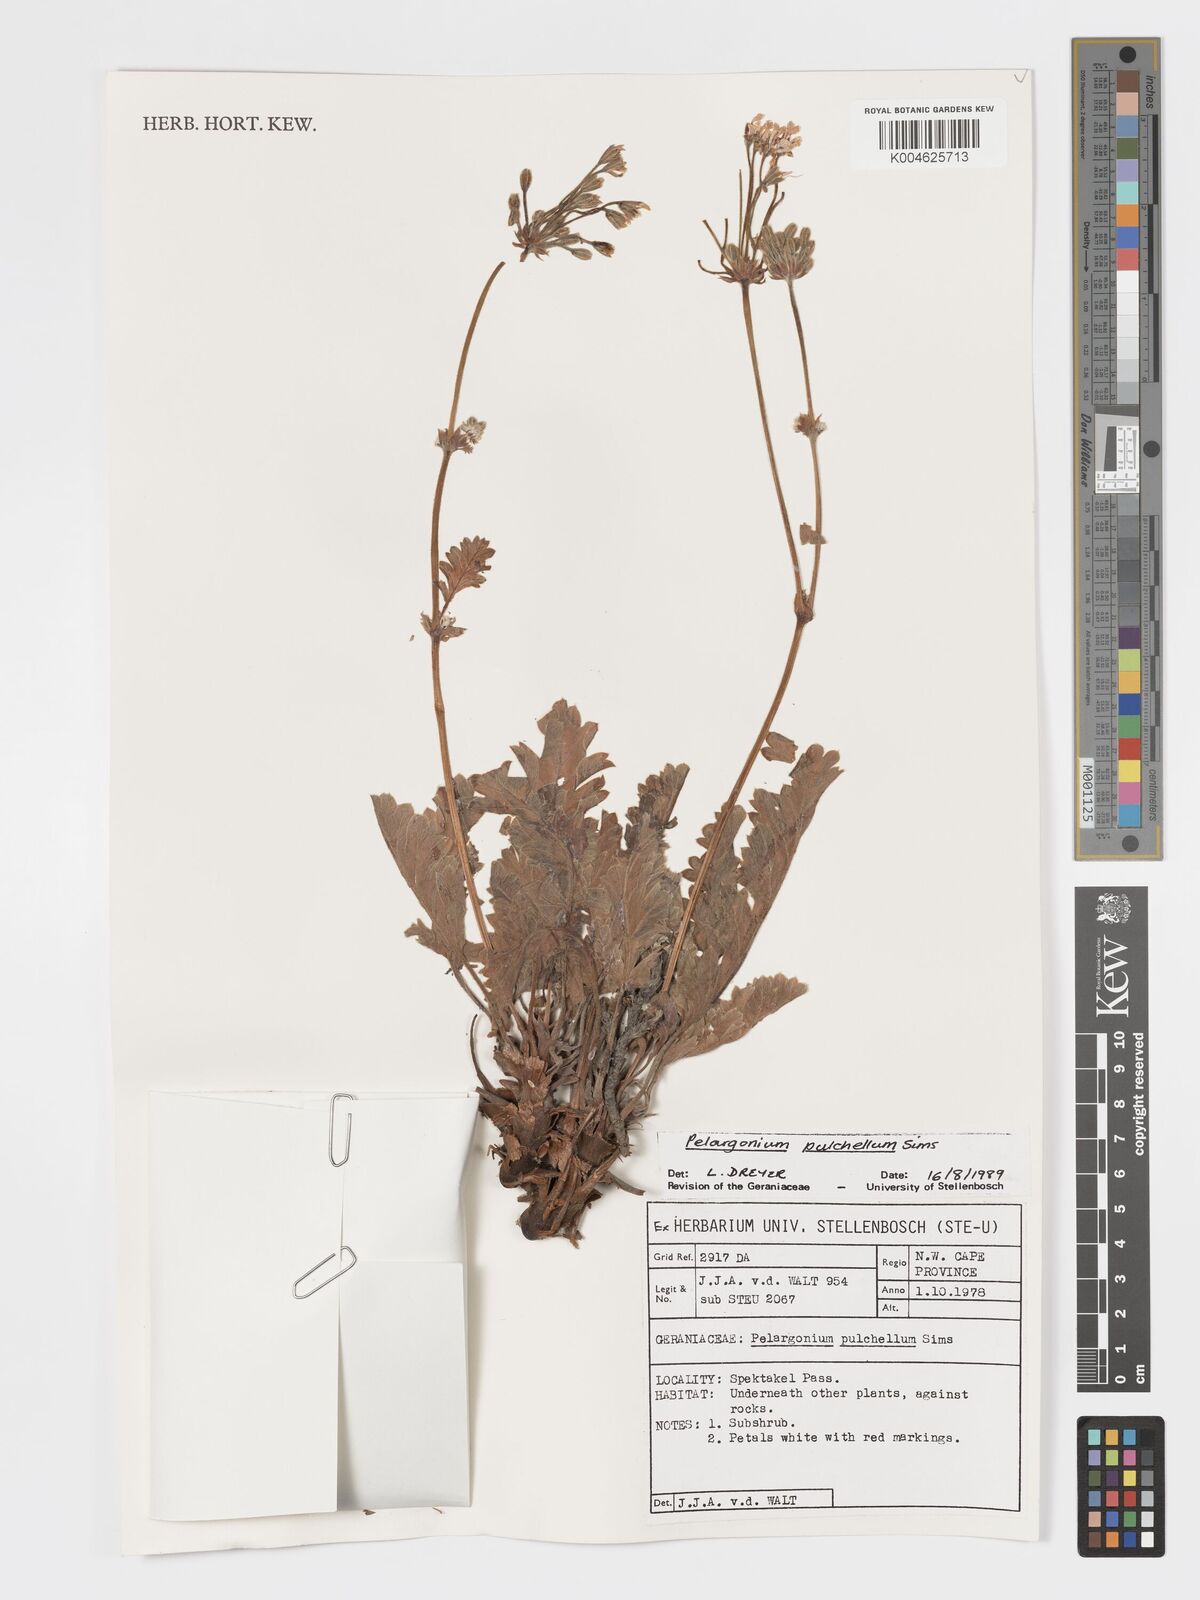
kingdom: Plantae
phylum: Tracheophyta
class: Magnoliopsida
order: Geraniales
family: Geraniaceae
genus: Pelargonium
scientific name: Pelargonium
